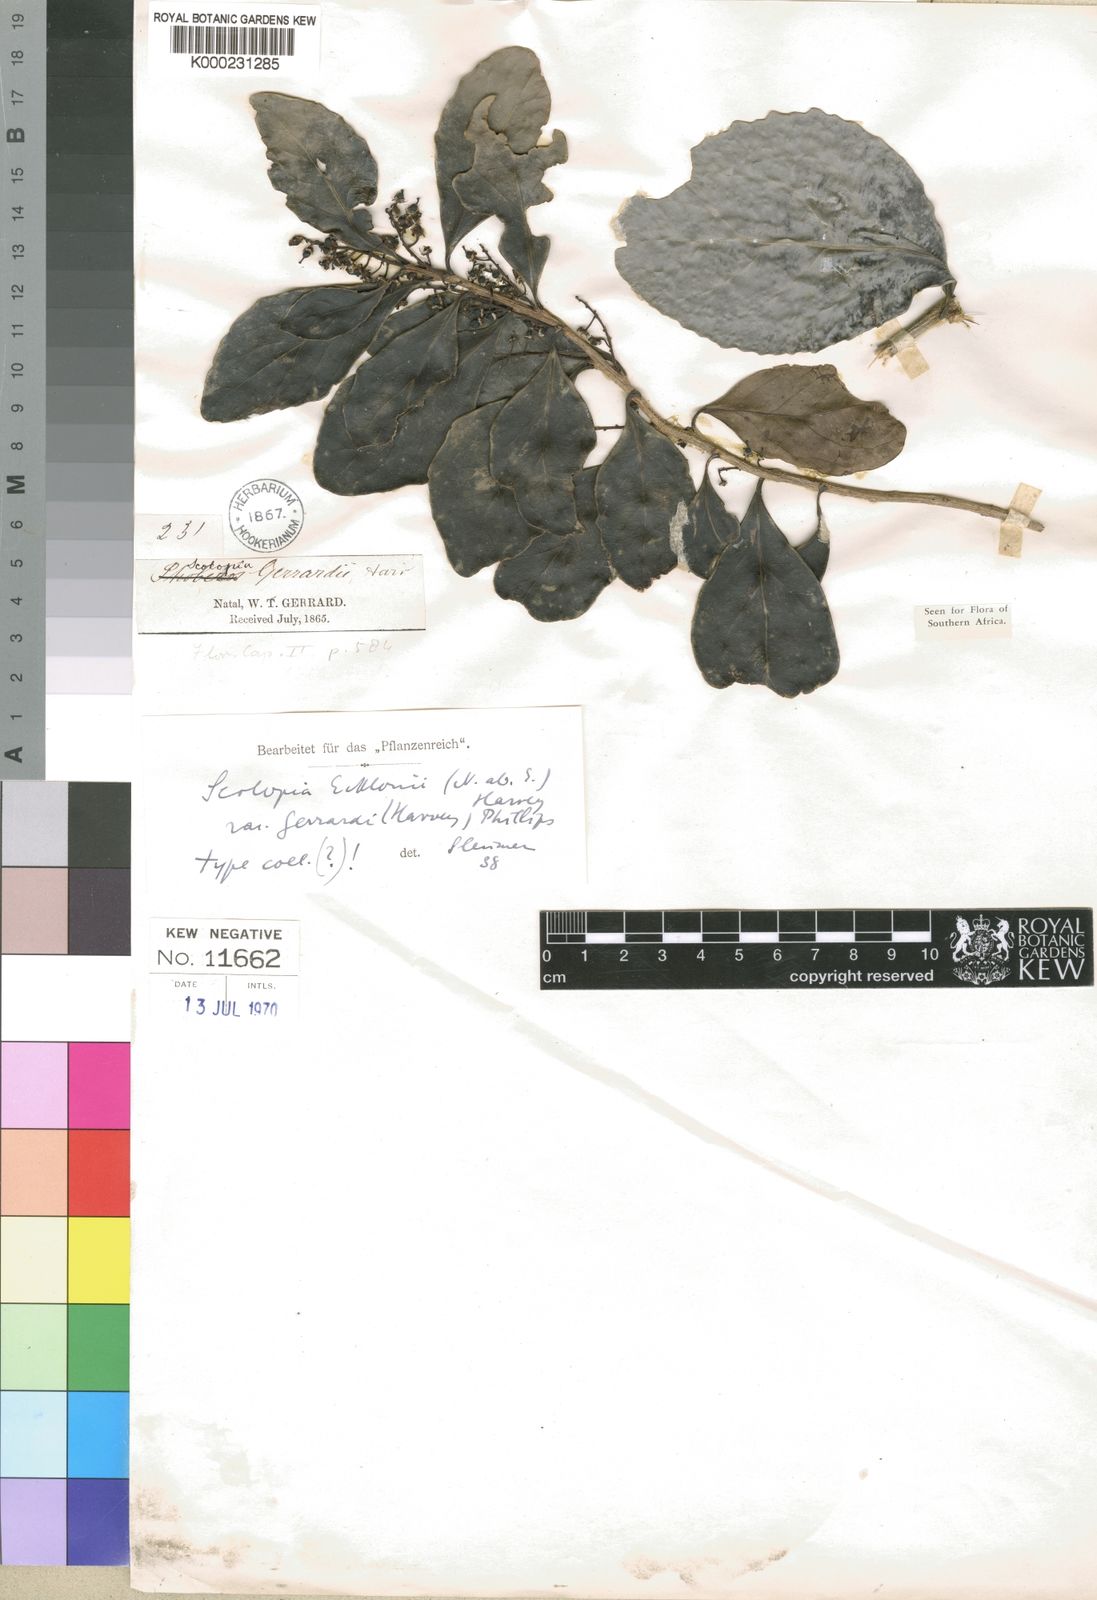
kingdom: Plantae
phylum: Tracheophyta
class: Magnoliopsida
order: Malpighiales
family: Salicaceae
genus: Scolopia
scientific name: Scolopia
